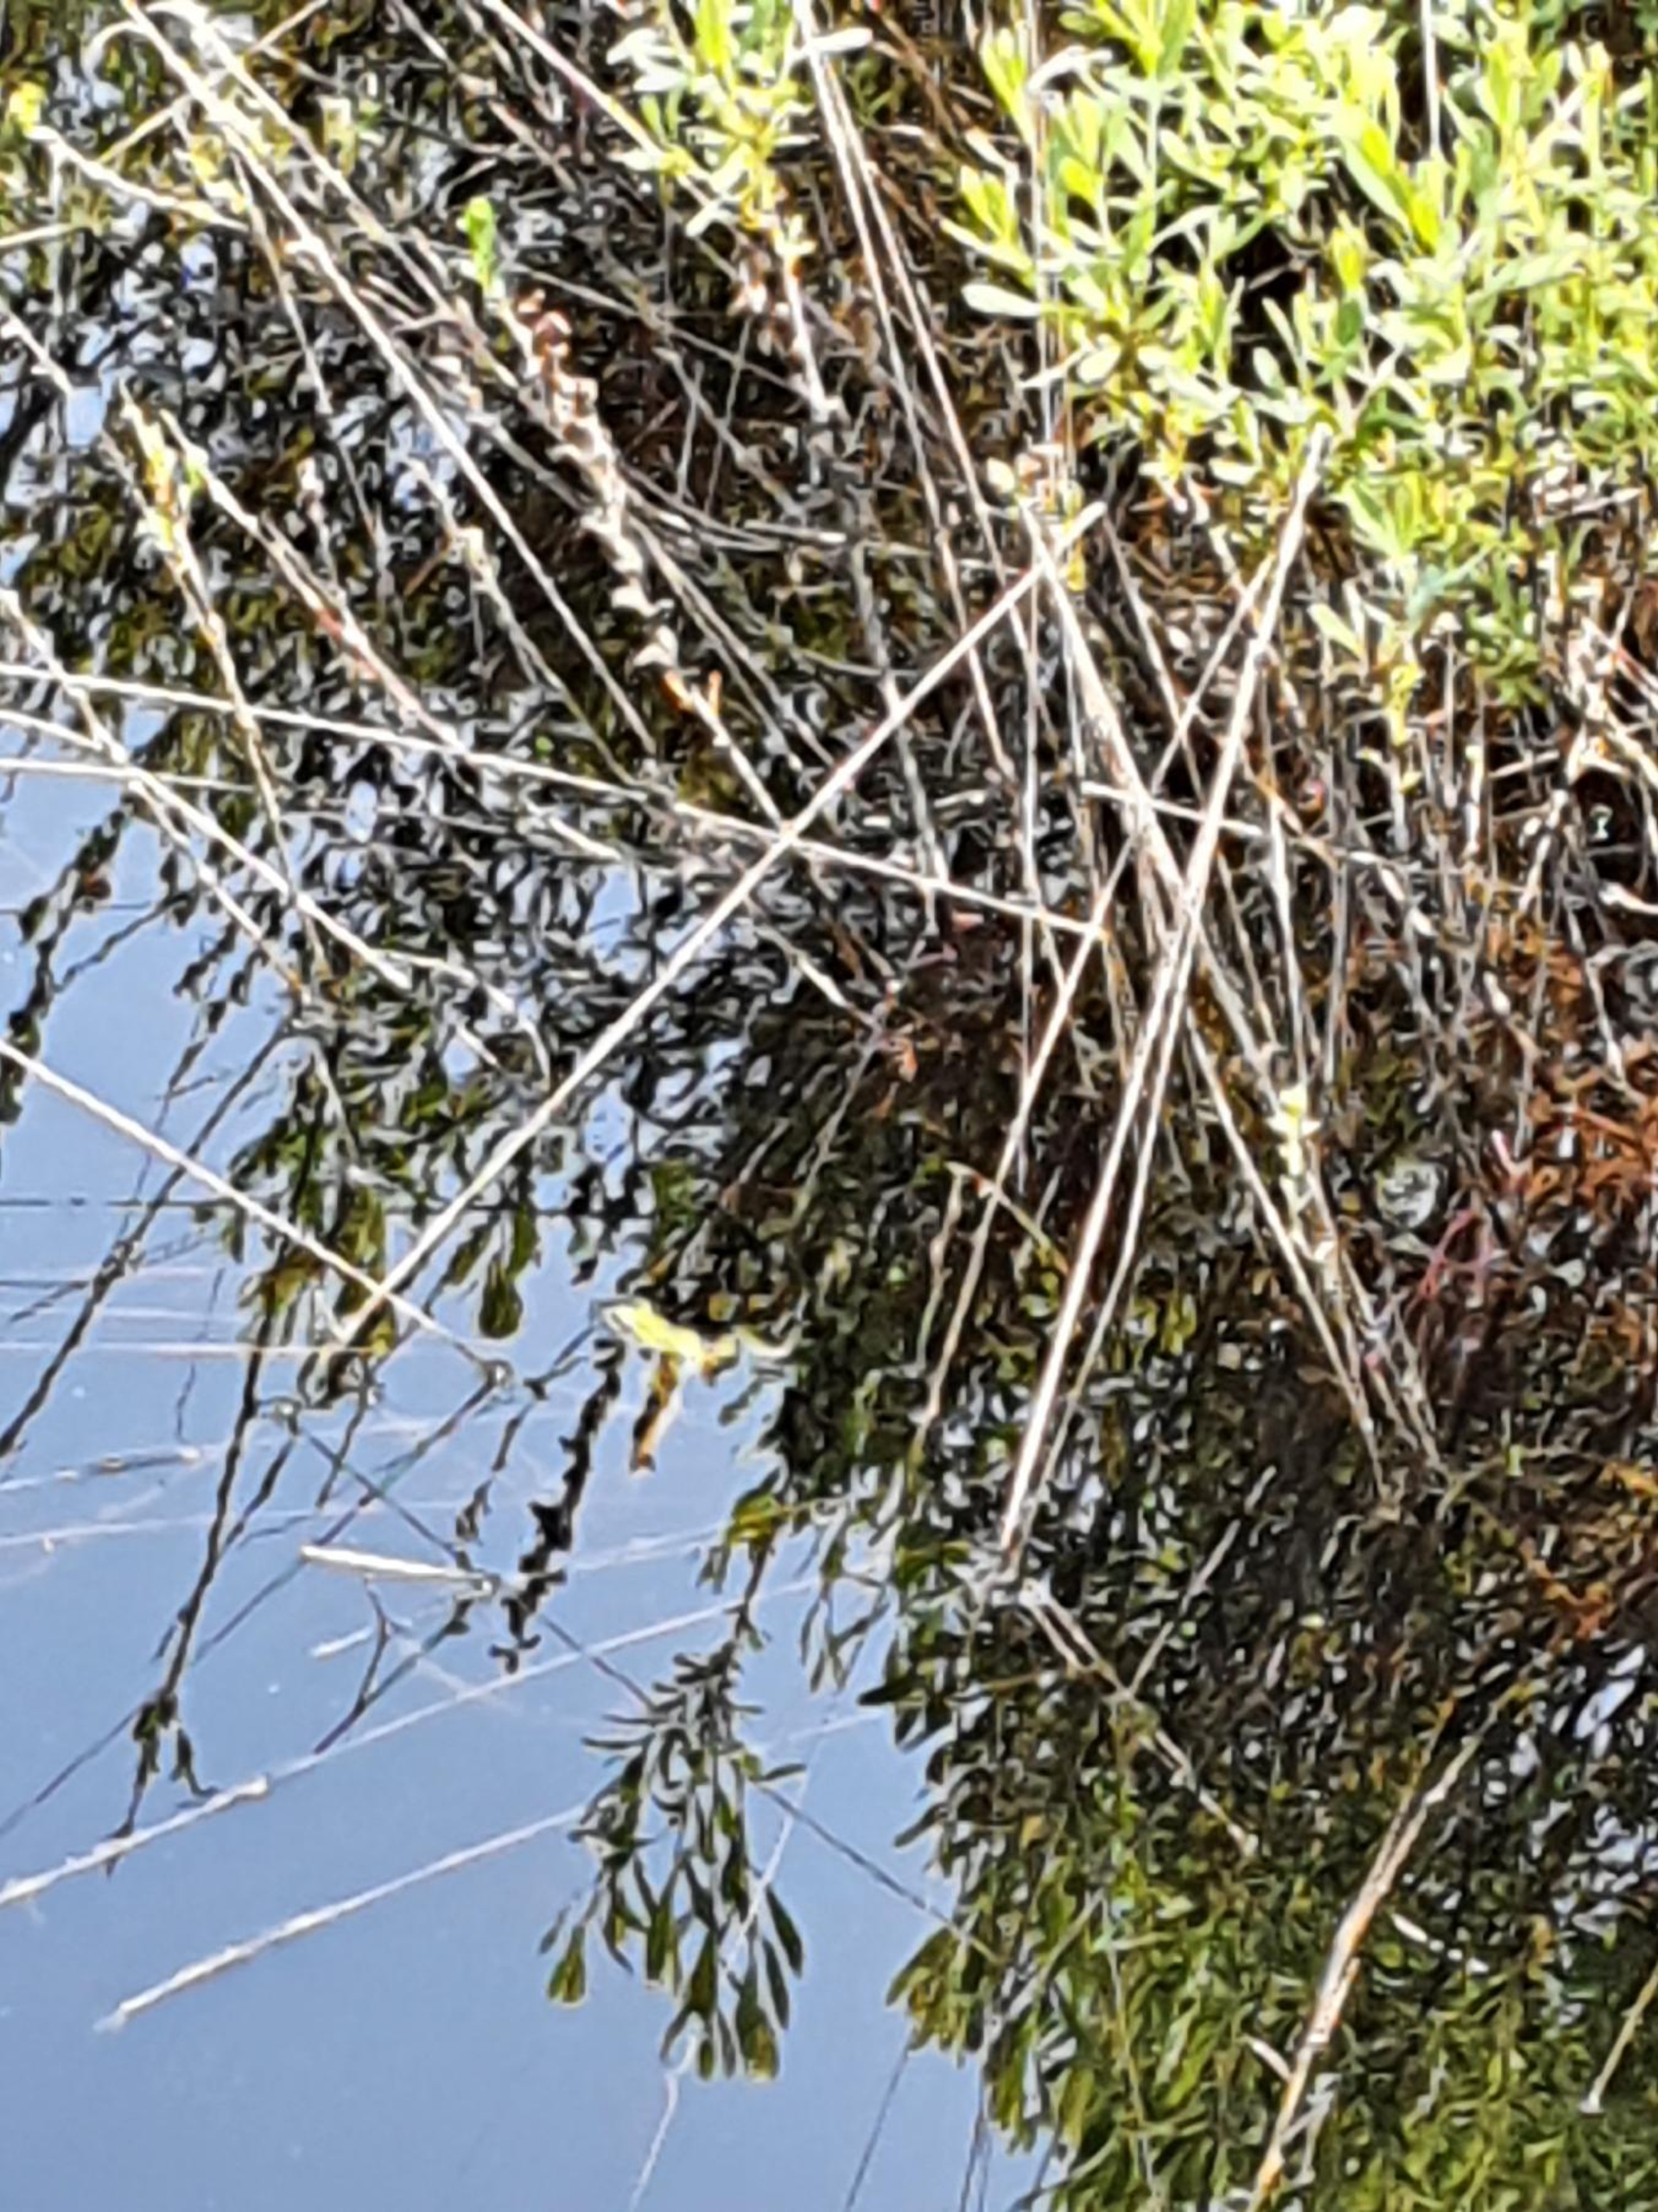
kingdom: Animalia
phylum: Chordata
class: Amphibia
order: Anura
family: Ranidae
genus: Pelophylax
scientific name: Pelophylax lessonae
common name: Grøn frø
